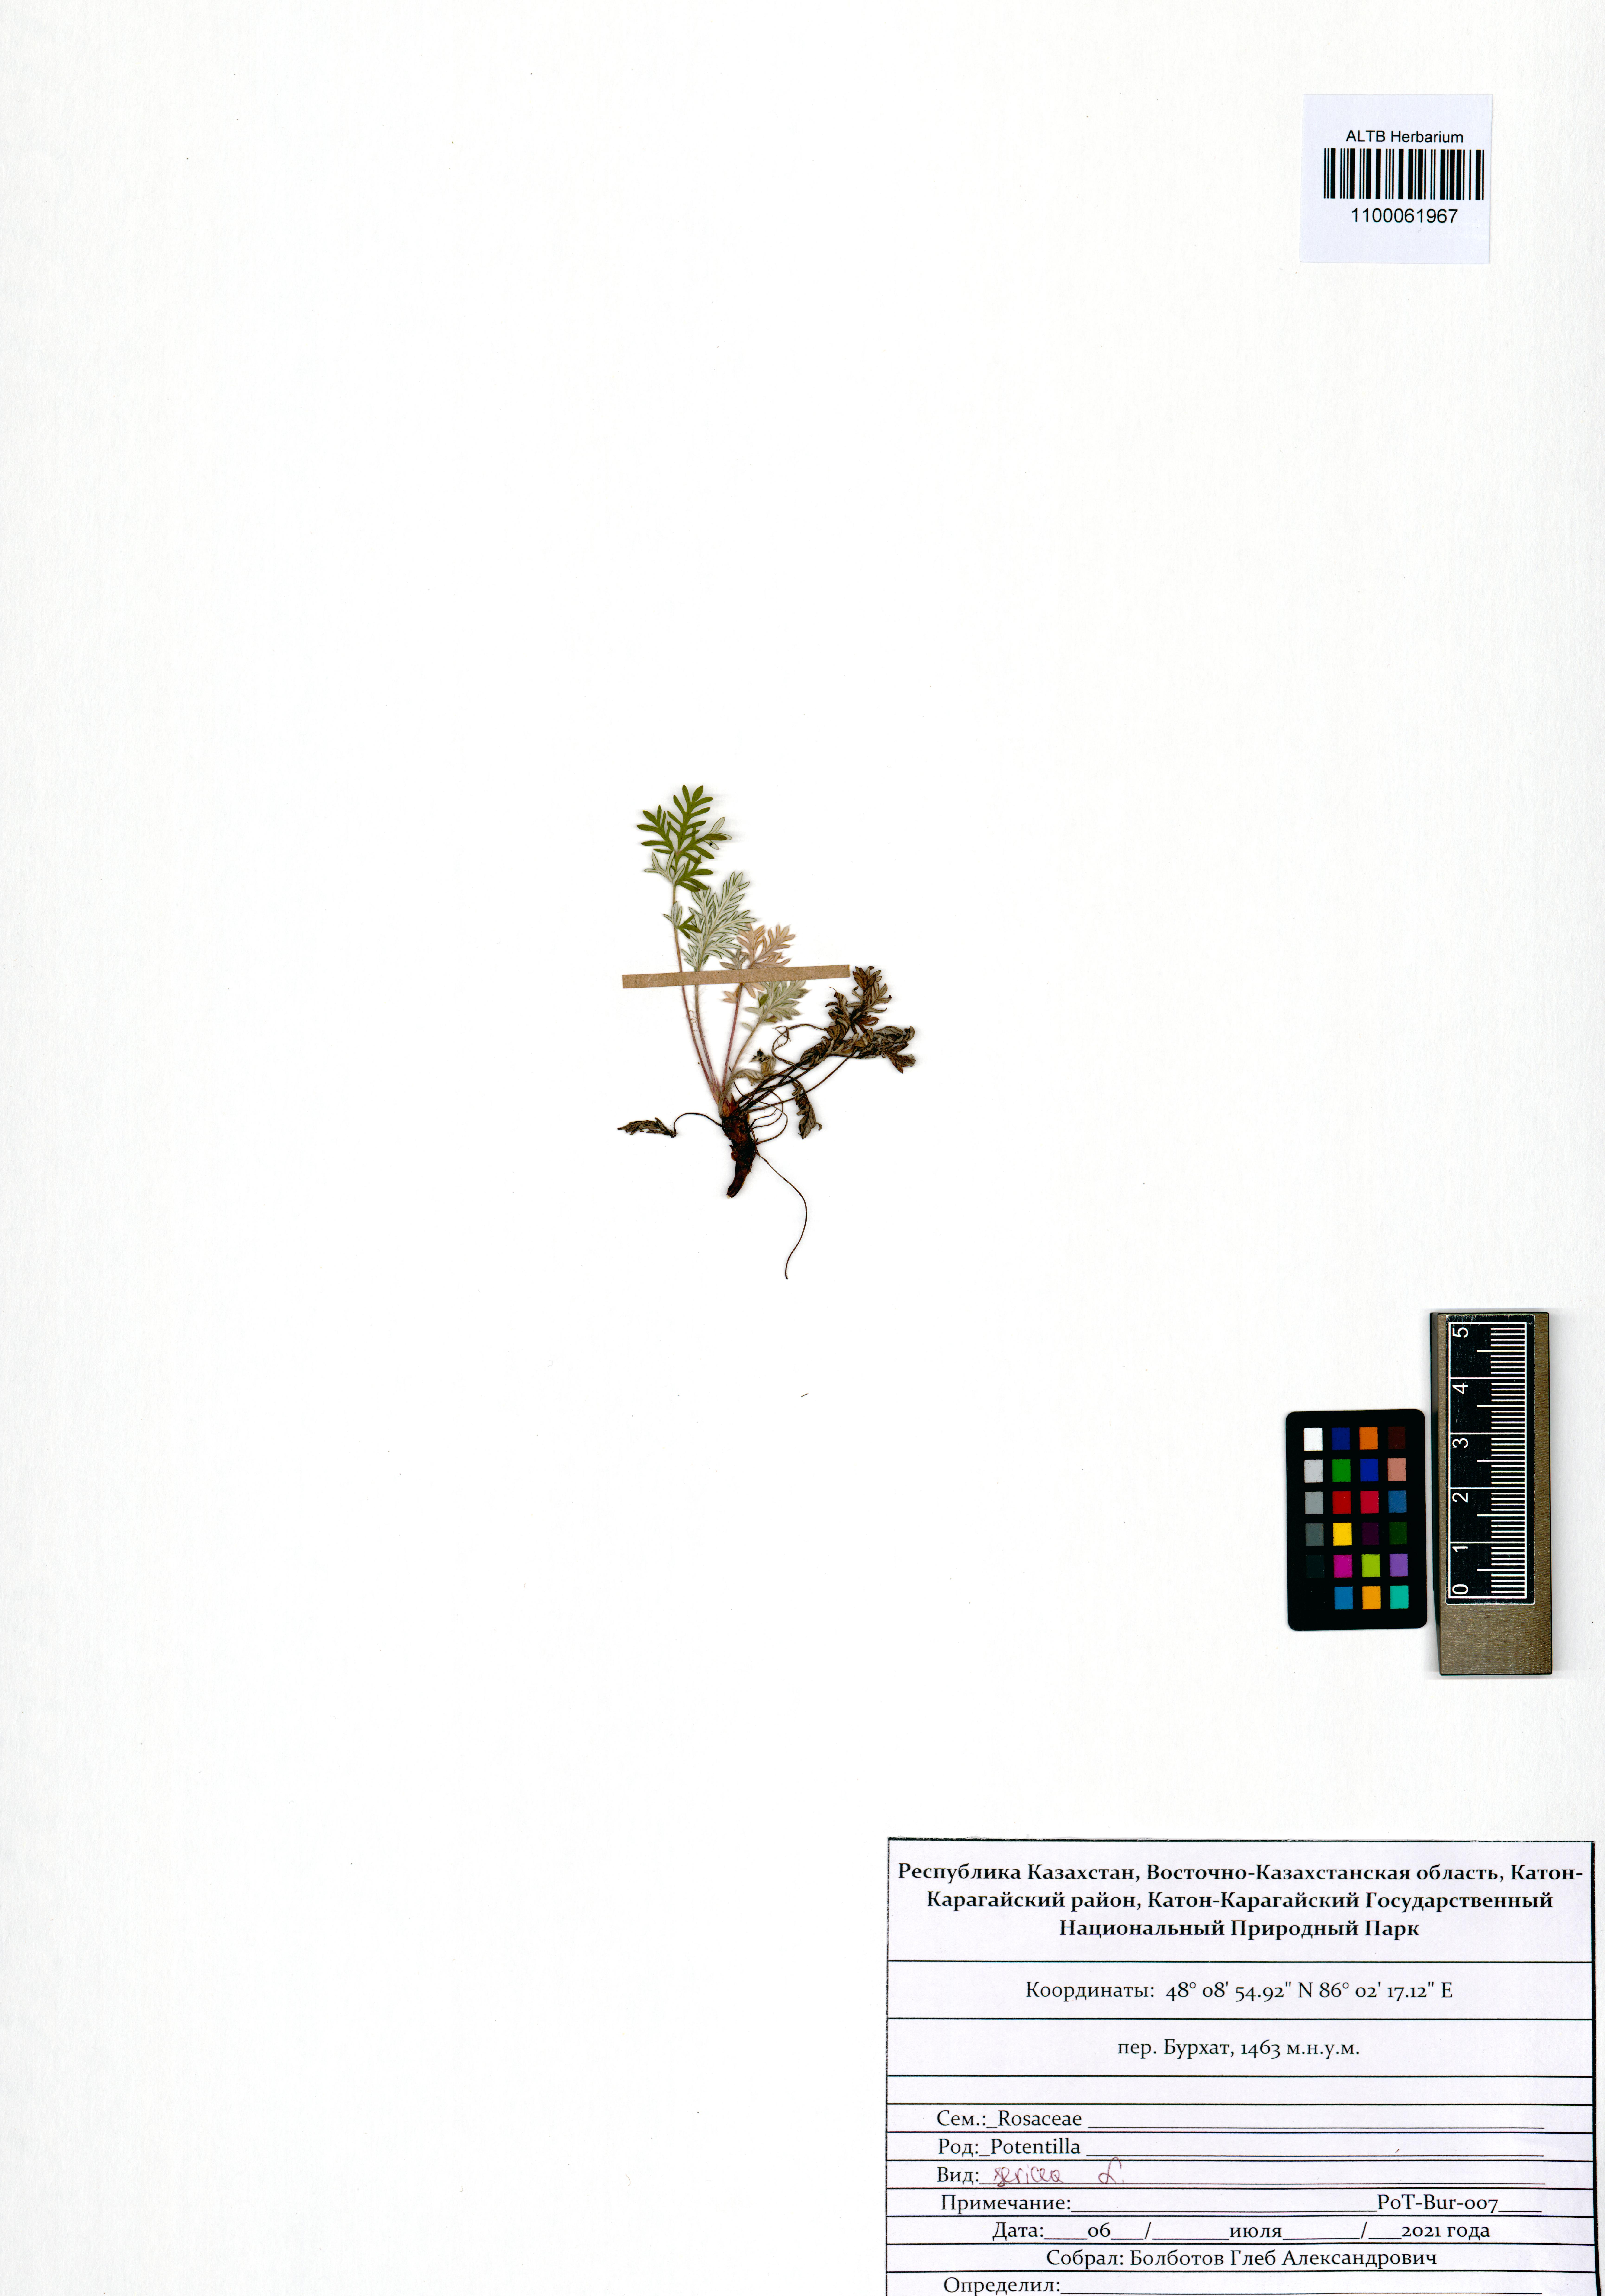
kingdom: Plantae
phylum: Tracheophyta
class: Magnoliopsida
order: Rosales
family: Rosaceae
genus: Potentilla
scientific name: Potentilla sericea
